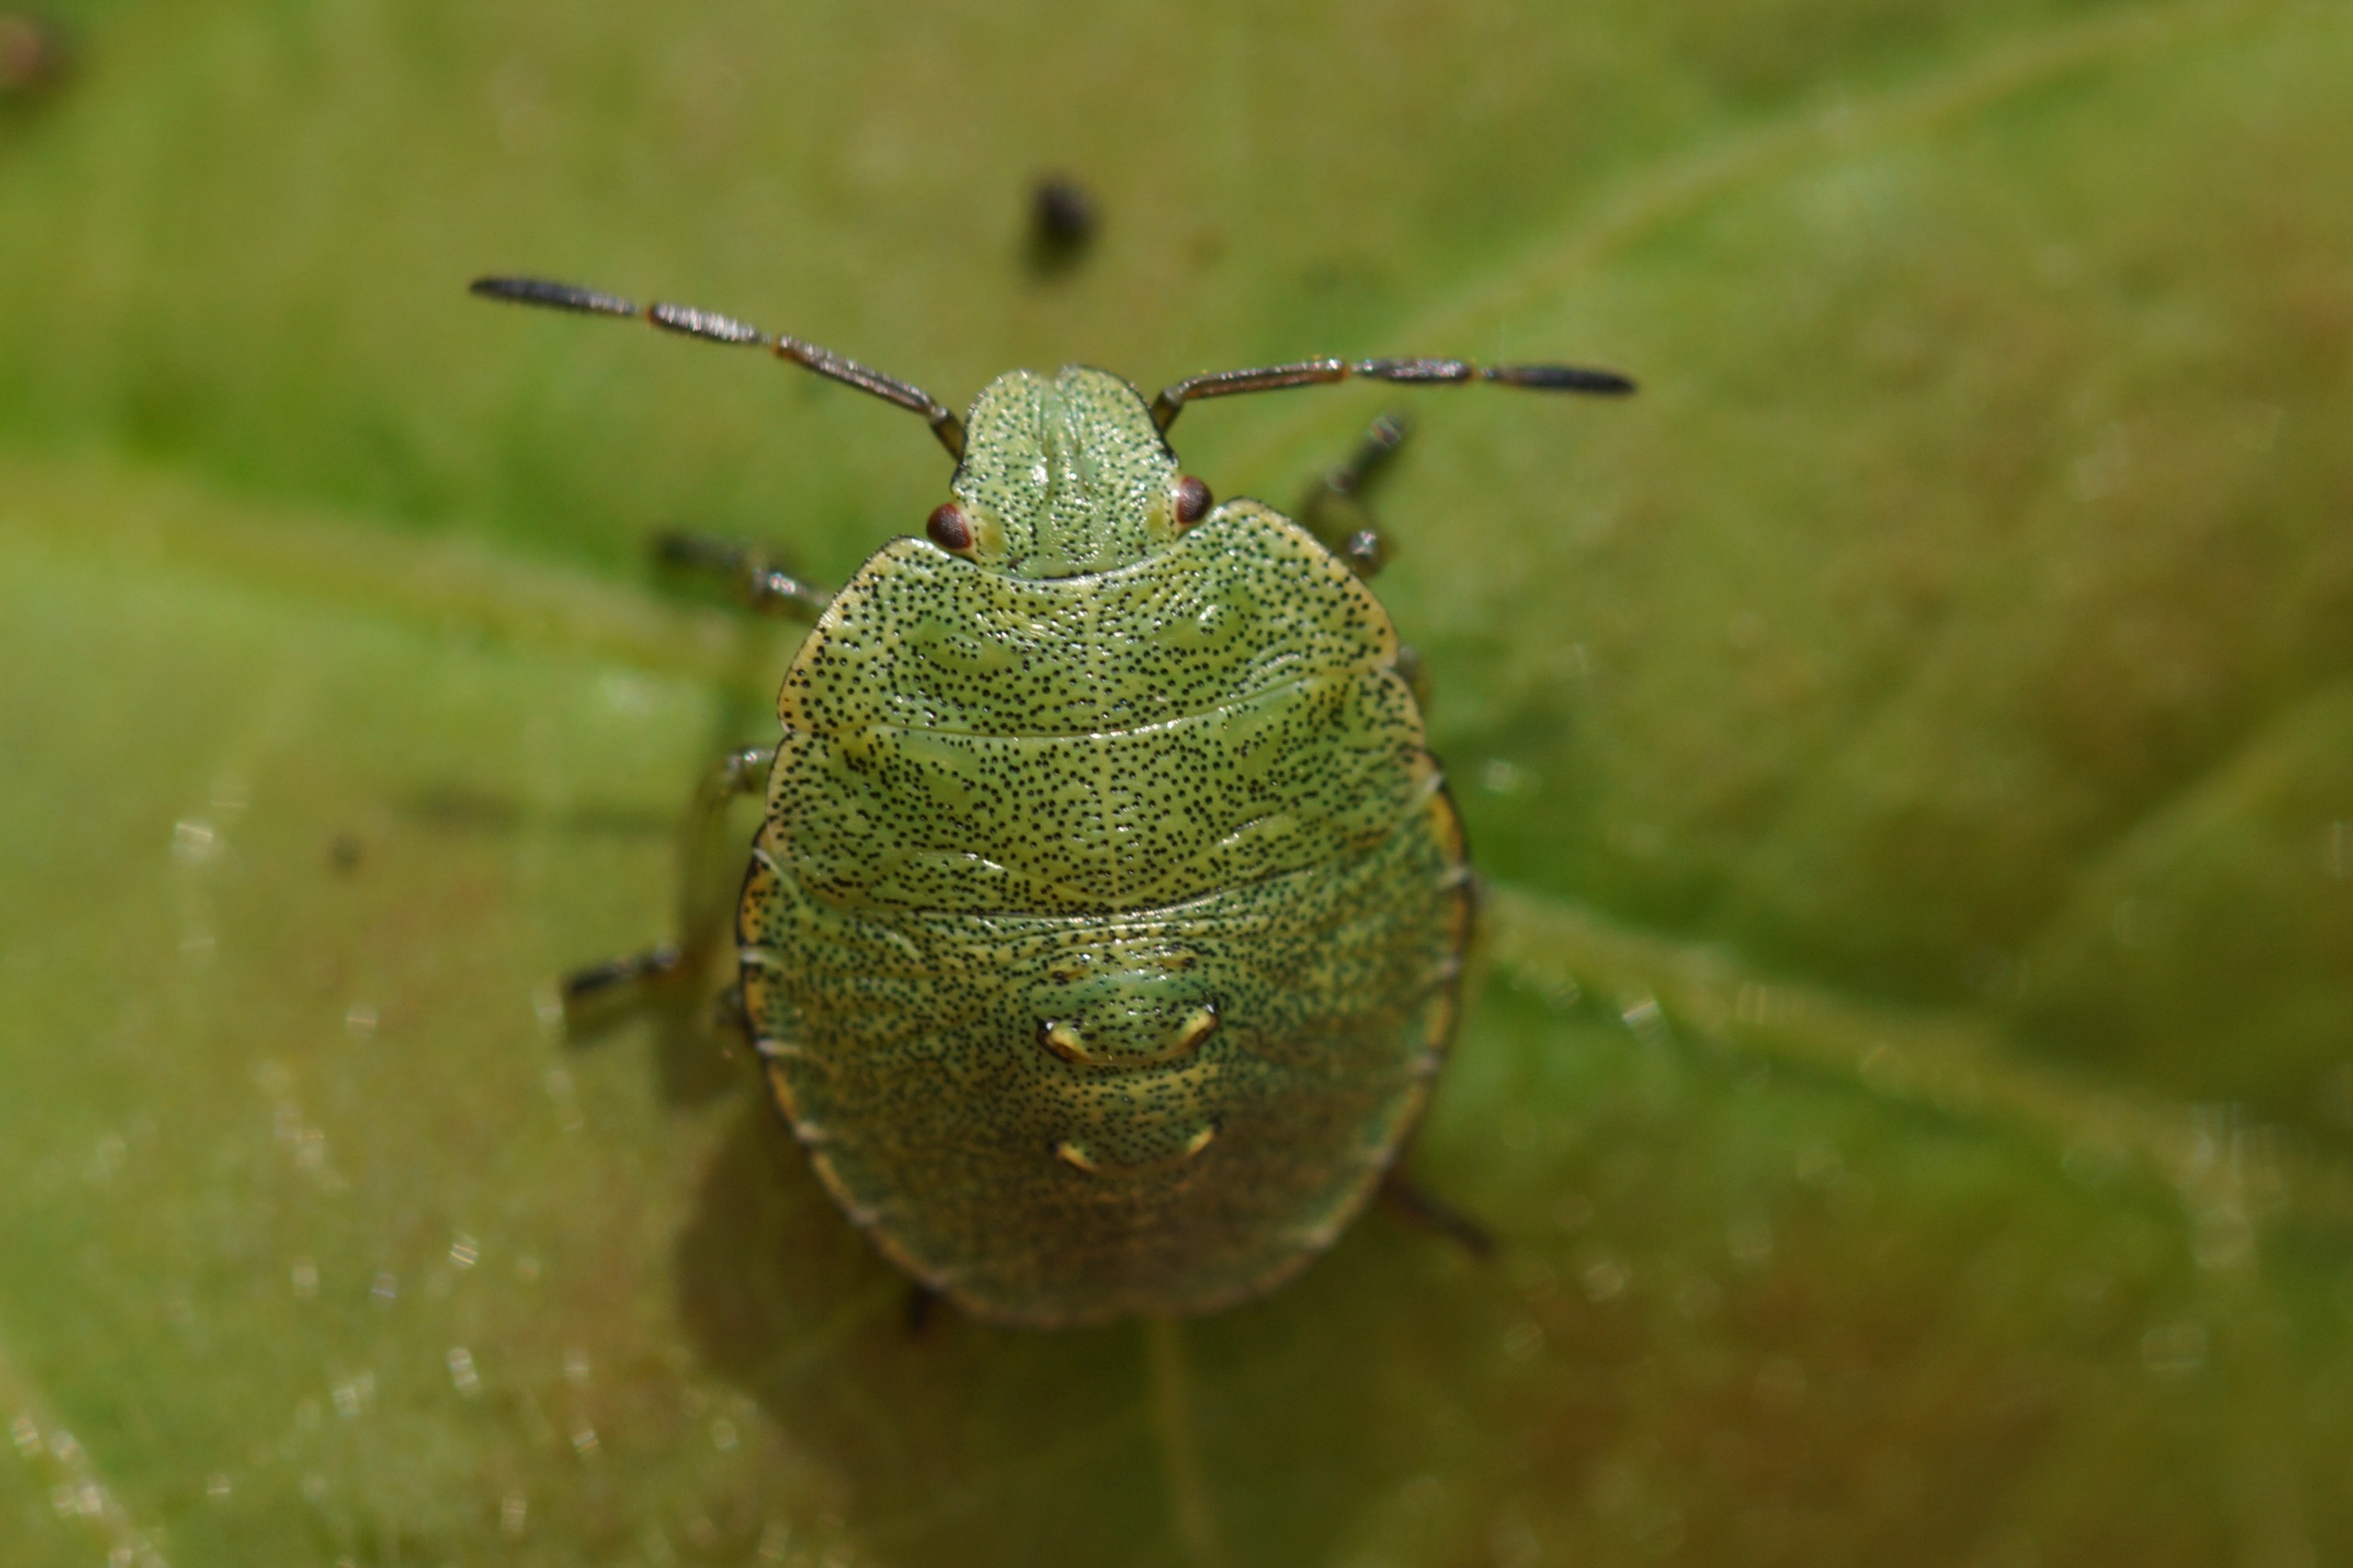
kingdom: Animalia
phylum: Arthropoda
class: Insecta
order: Hemiptera
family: Pentatomidae
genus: Palomena
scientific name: Palomena prasina
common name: Grøn bredtæge
